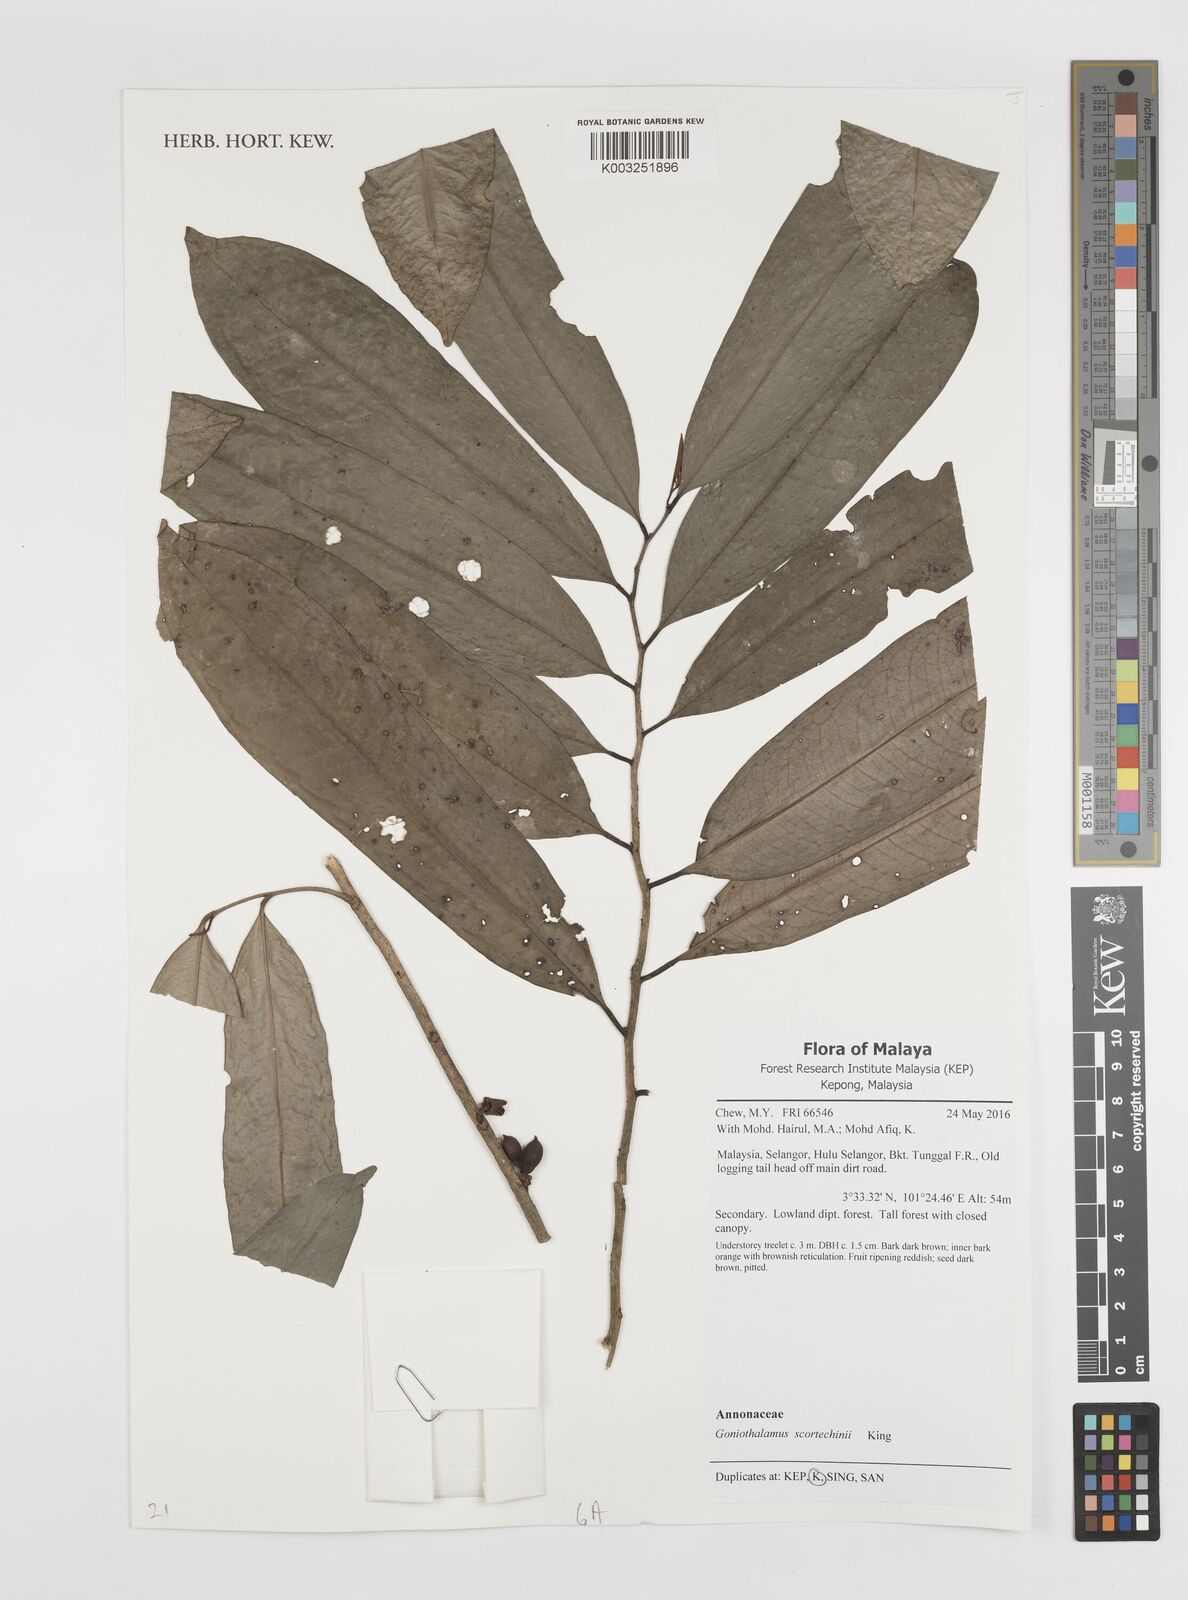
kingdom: Plantae
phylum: Tracheophyta
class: Magnoliopsida
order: Magnoliales
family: Annonaceae
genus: Goniothalamus
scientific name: Goniothalamus scortechinii
